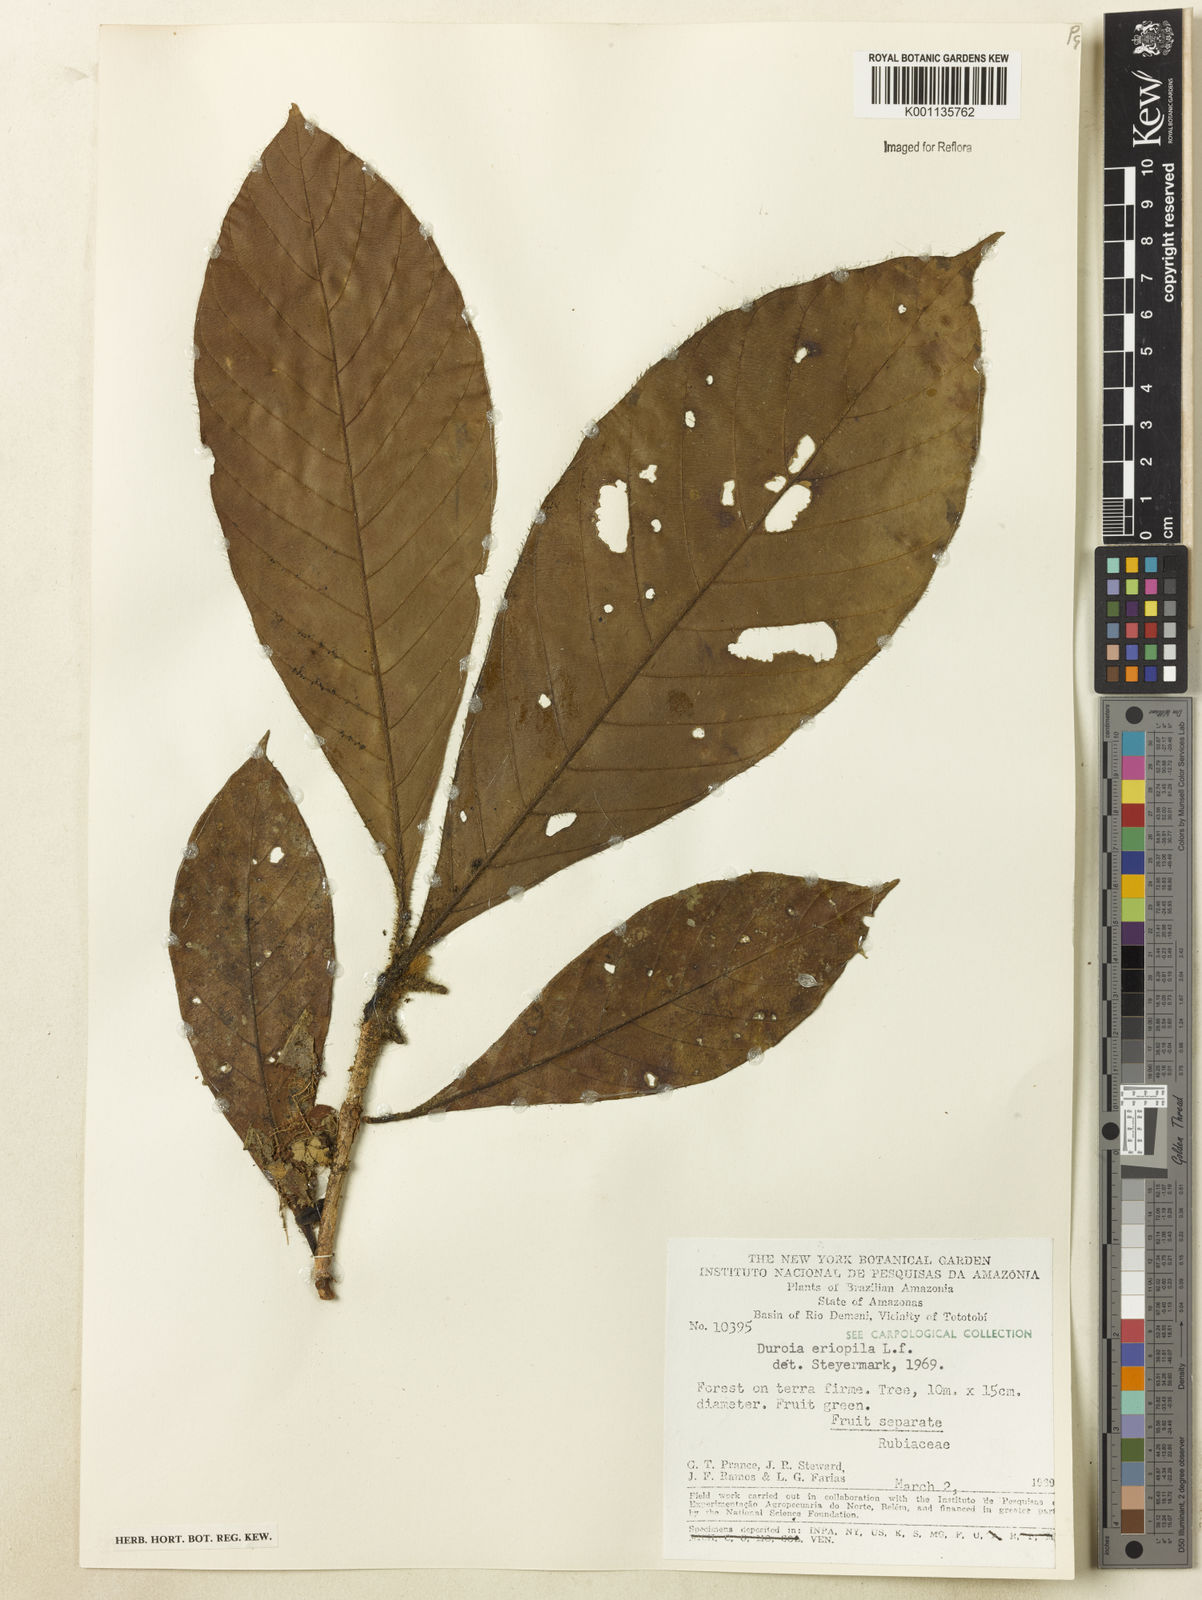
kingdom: Plantae
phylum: Tracheophyta
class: Magnoliopsida
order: Gentianales
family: Rubiaceae
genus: Duroia
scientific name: Duroia eriopila
